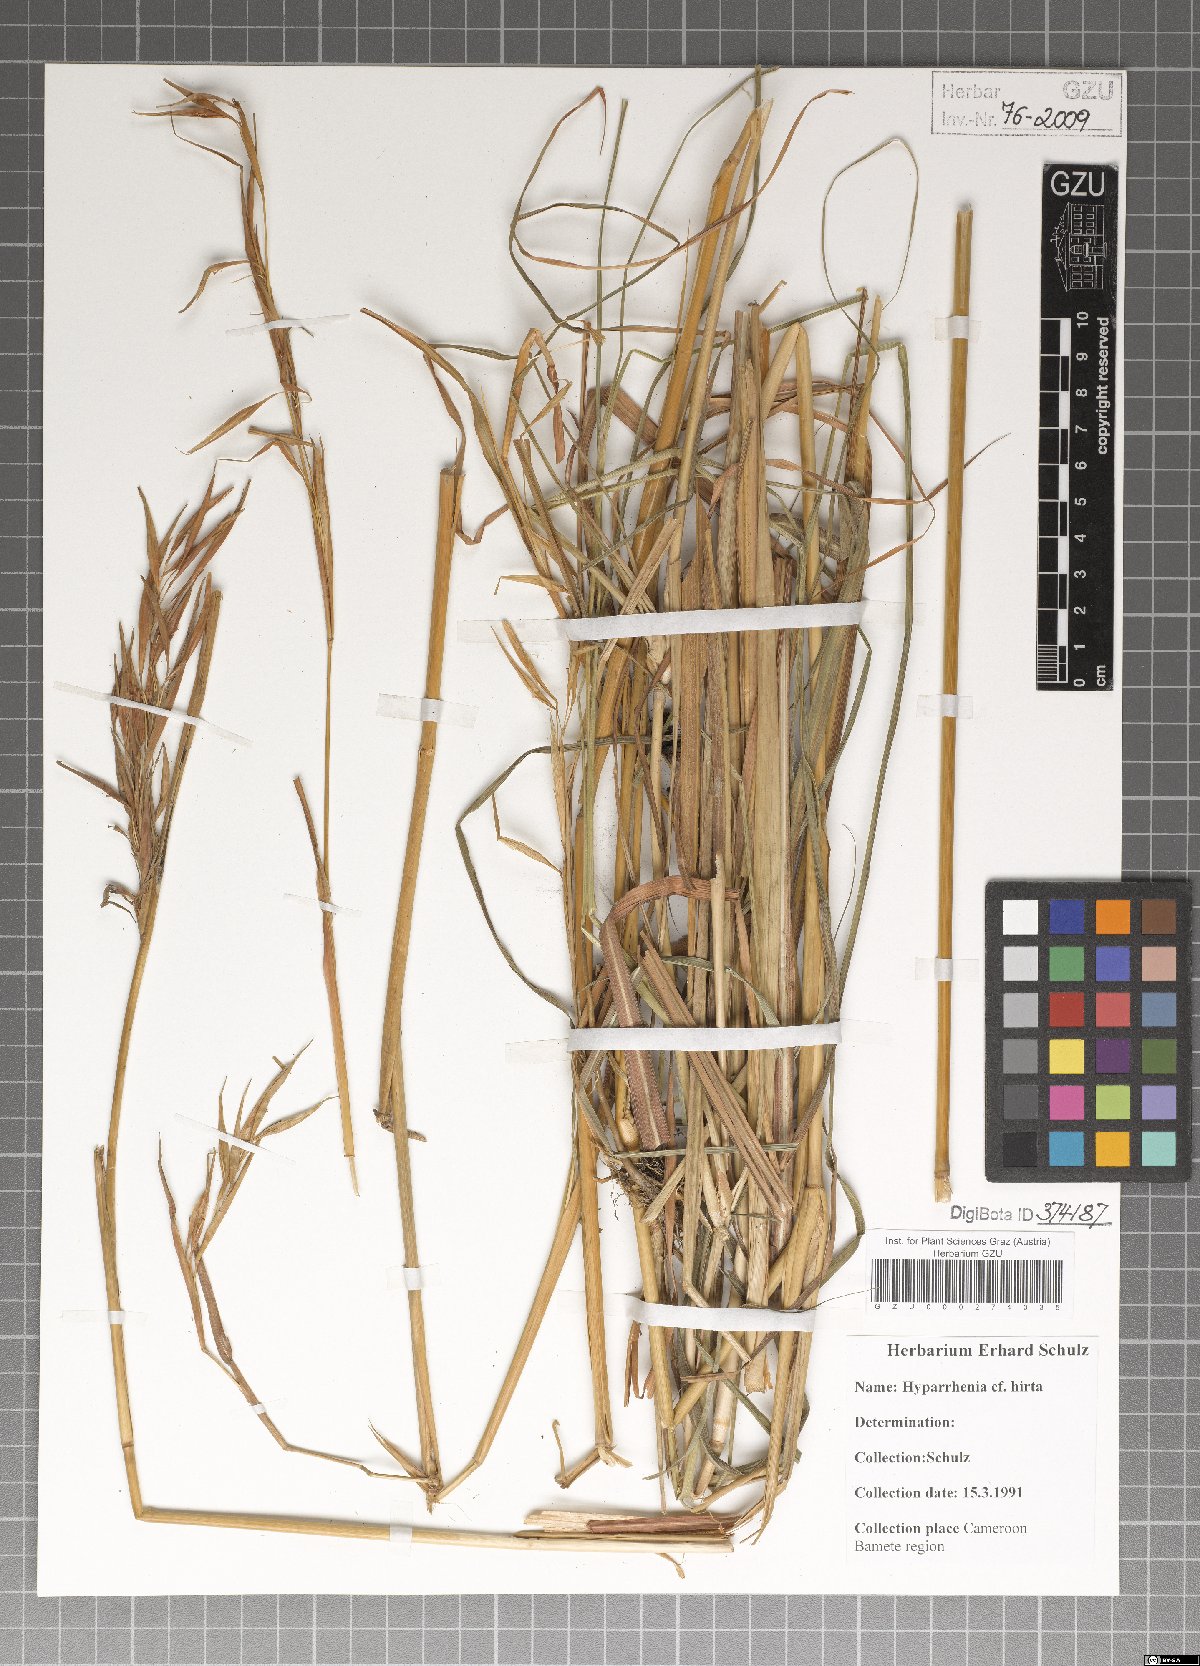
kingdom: Plantae
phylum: Tracheophyta
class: Liliopsida
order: Poales
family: Poaceae
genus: Hyparrhenia
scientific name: Hyparrhenia hirta
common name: Thatching grass
